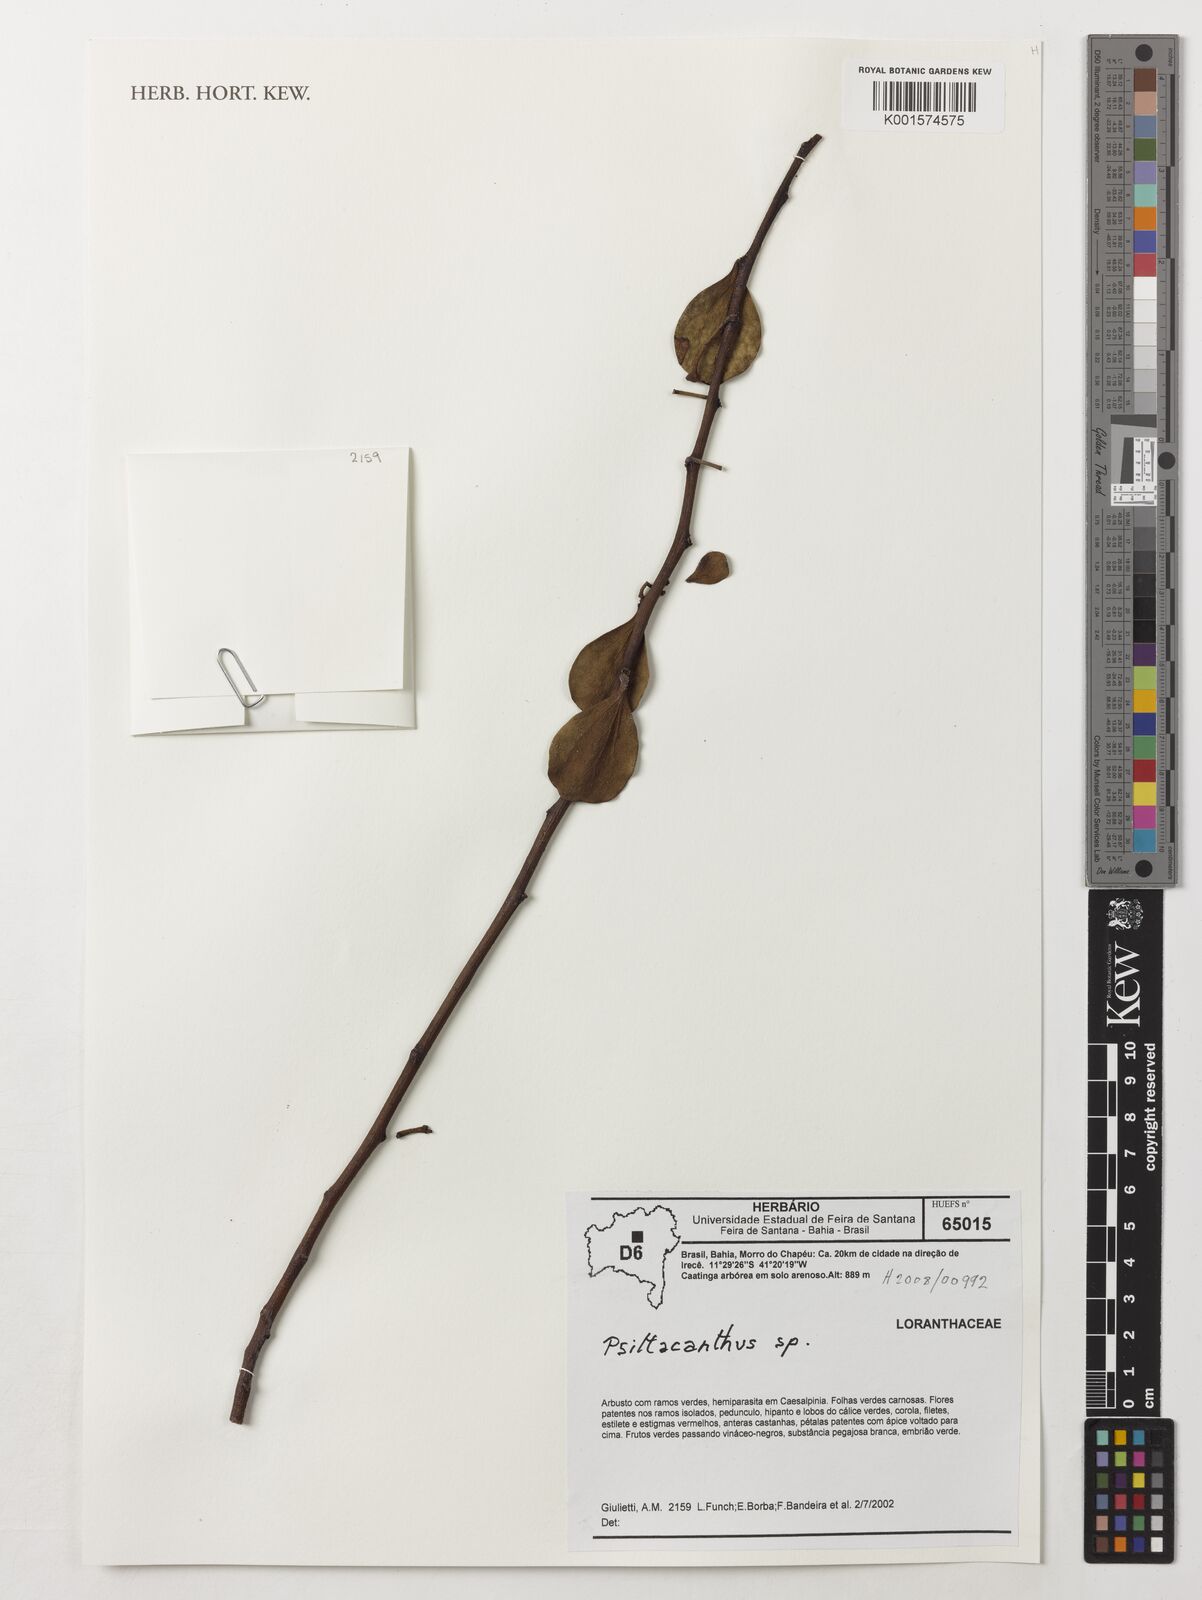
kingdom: Plantae
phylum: Tracheophyta
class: Magnoliopsida
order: Santalales
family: Loranthaceae
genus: Psittacanthus
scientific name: Psittacanthus
